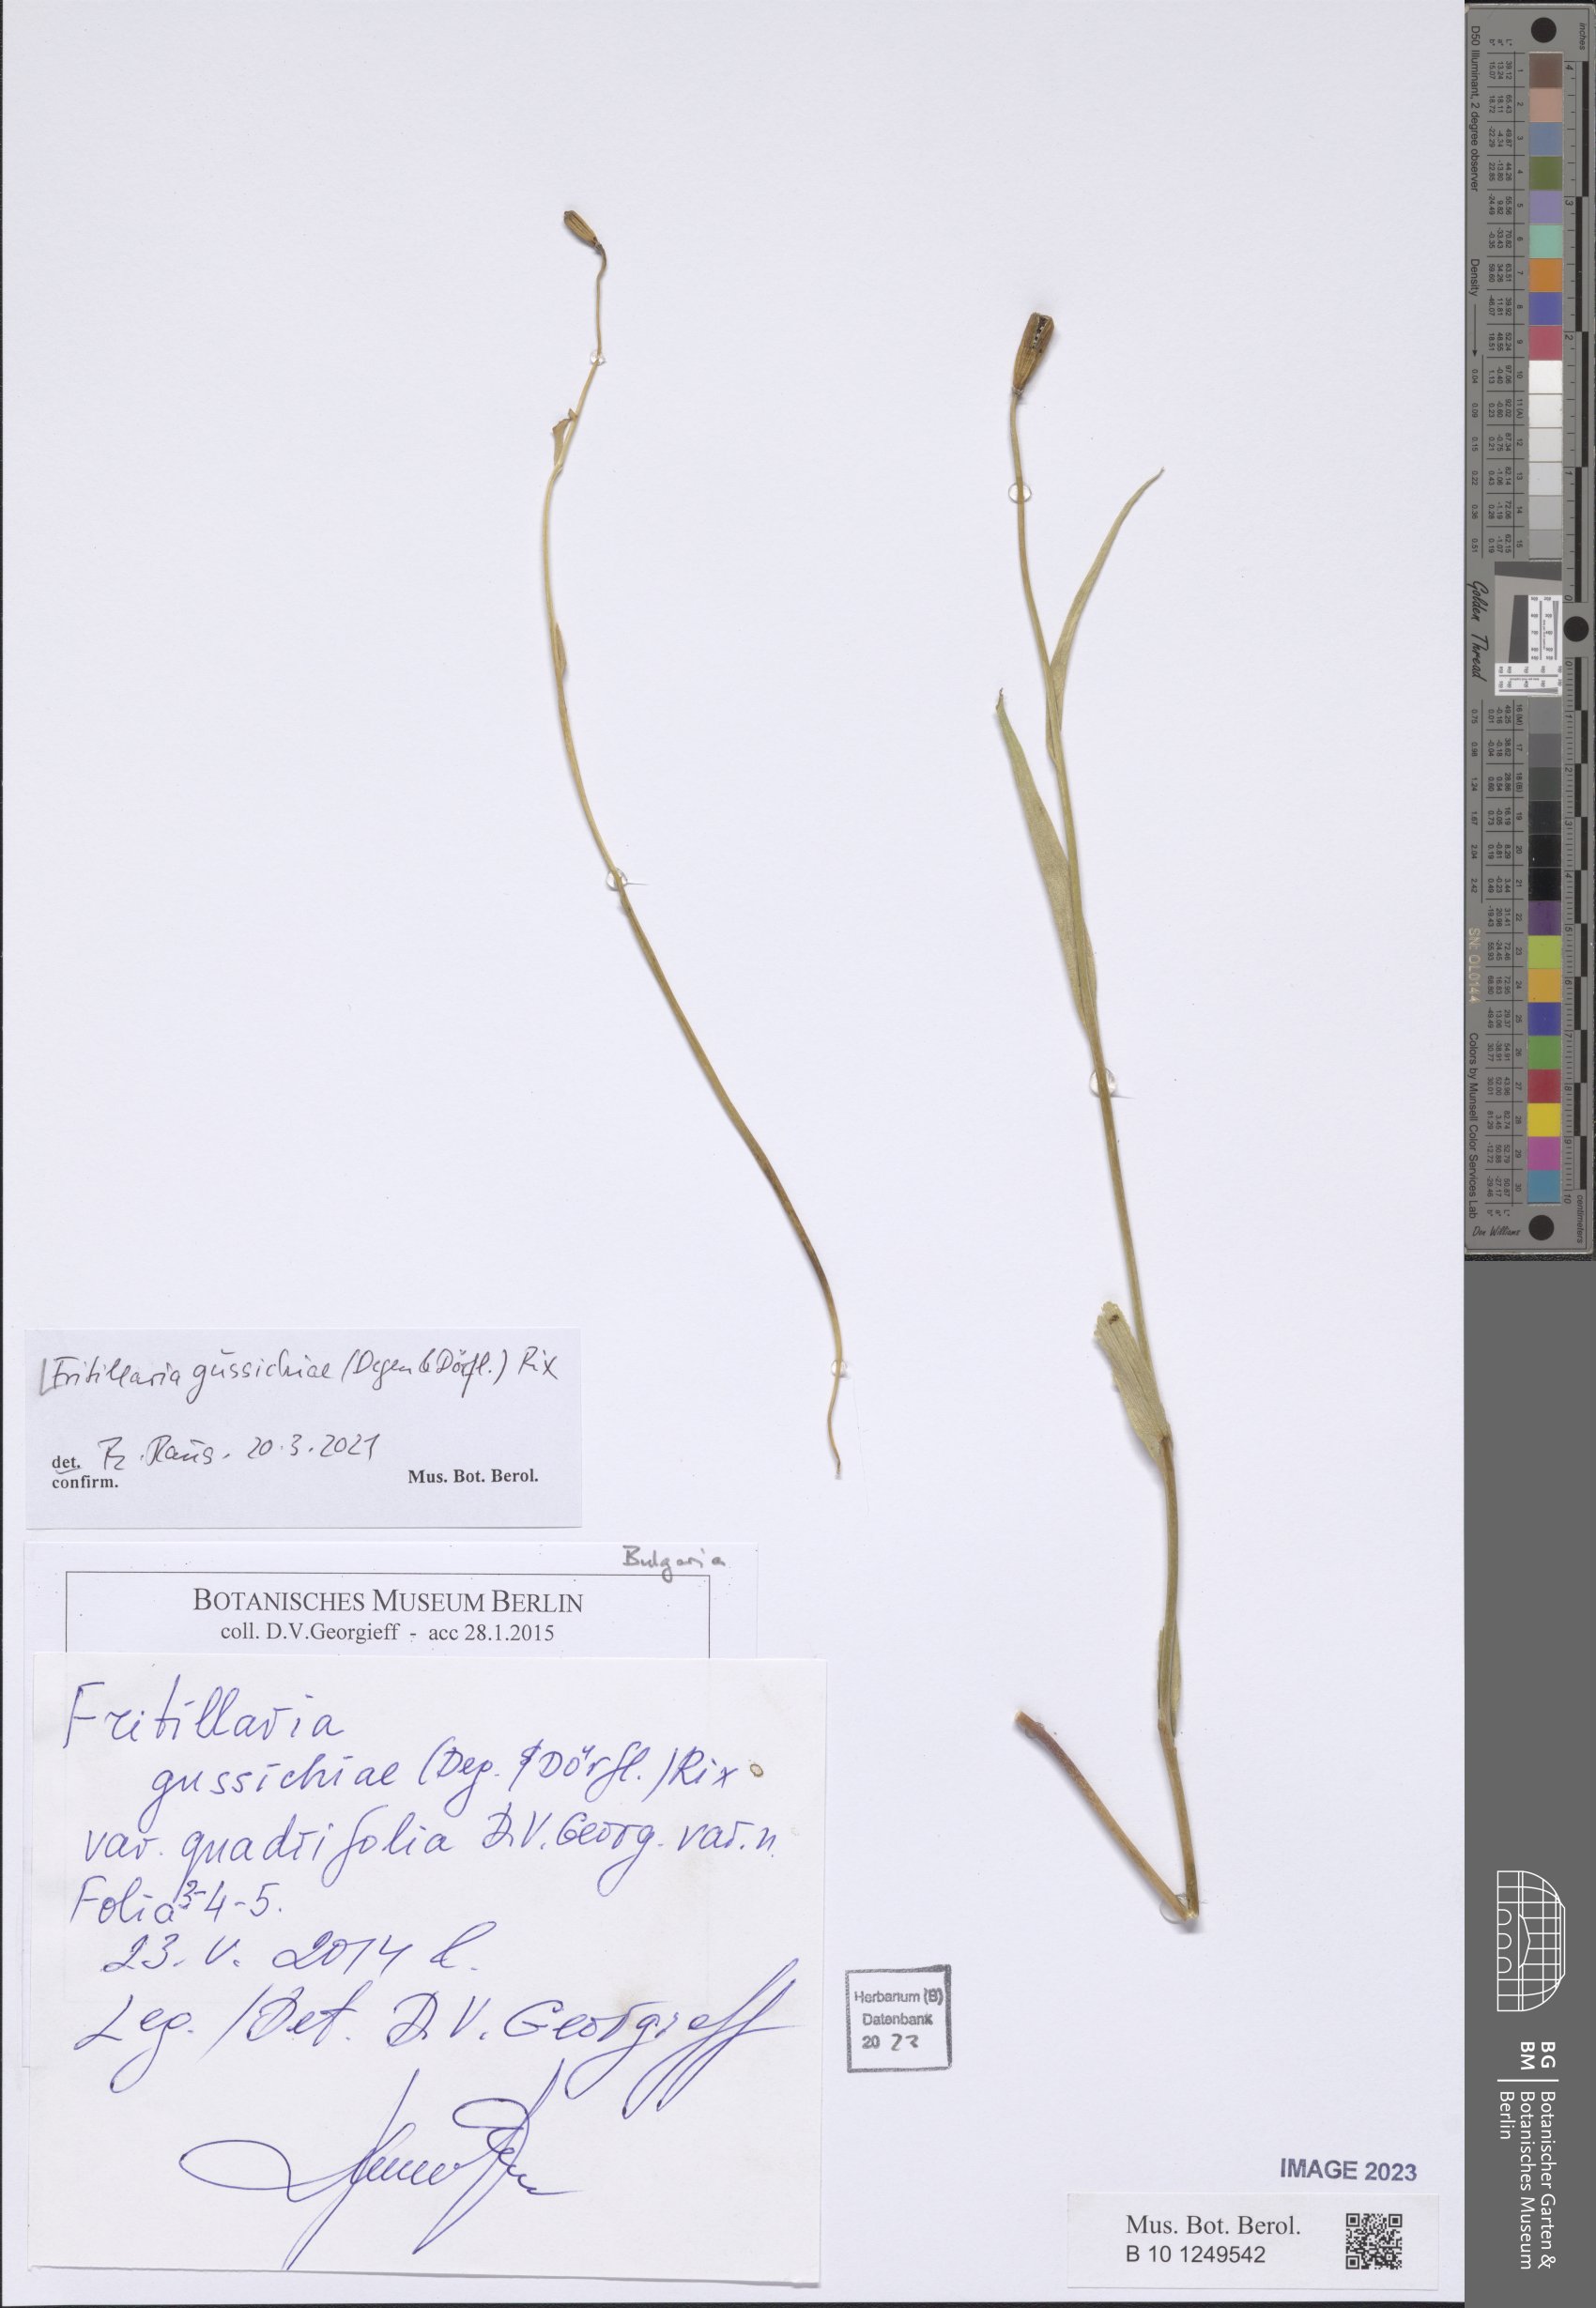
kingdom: Plantae
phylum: Tracheophyta
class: Liliopsida
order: Liliales
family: Liliaceae
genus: Fritillaria
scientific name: Fritillaria gussichiae
